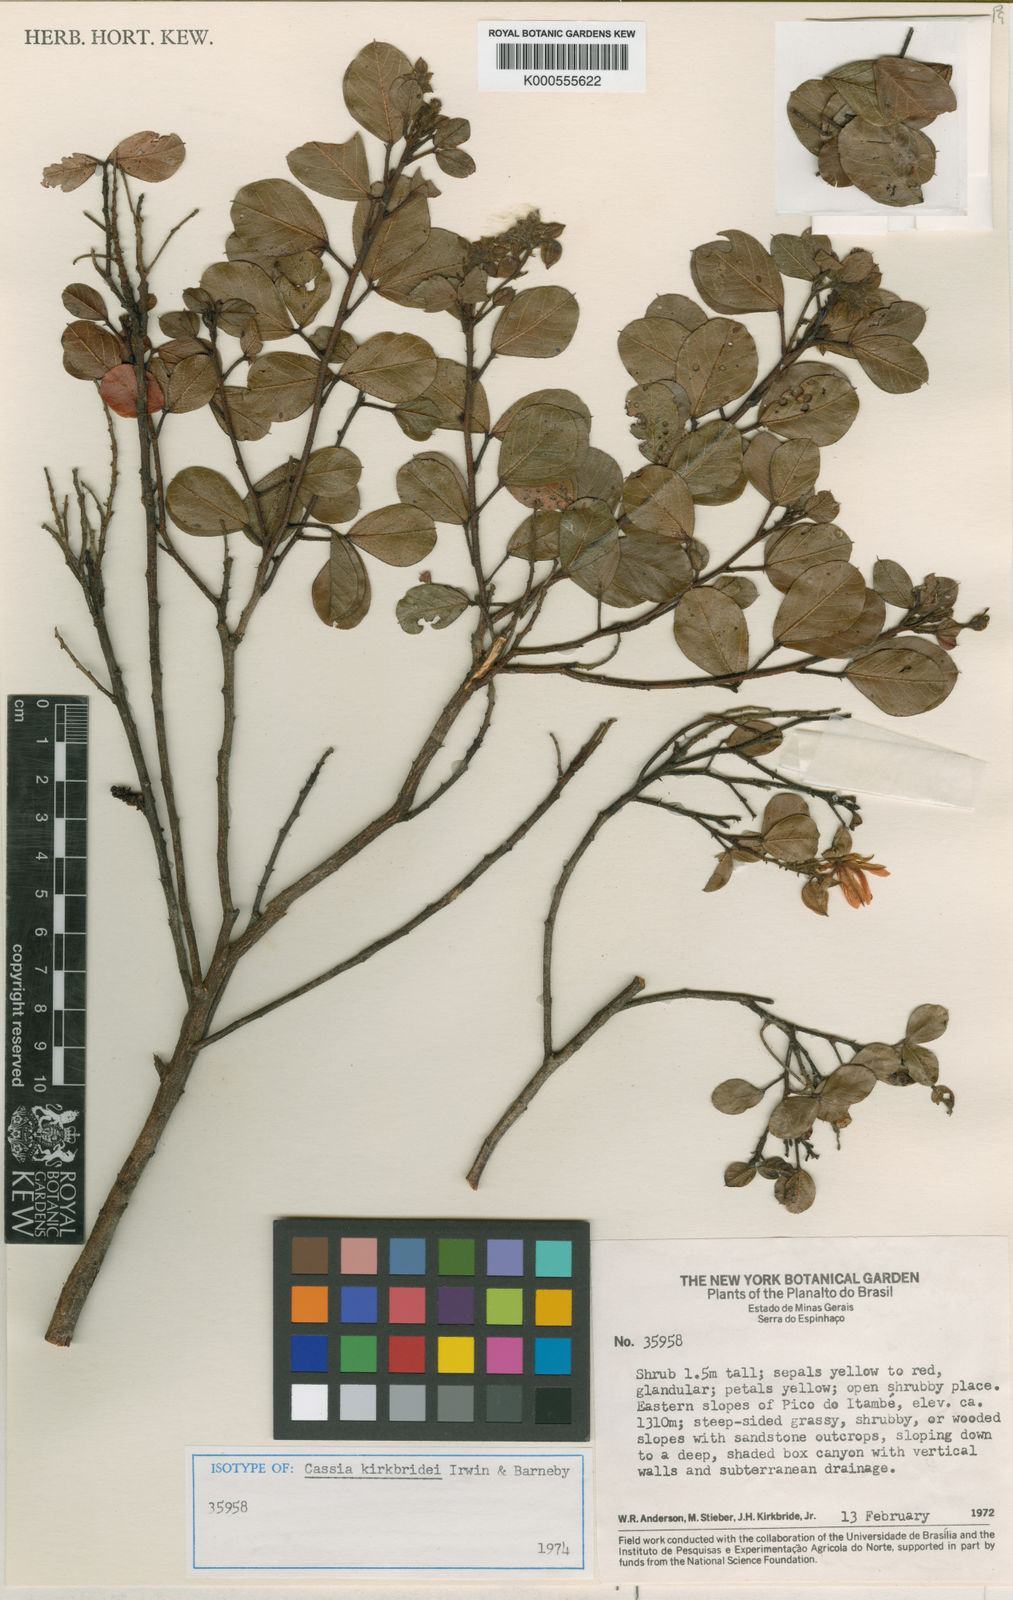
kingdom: Plantae
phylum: Tracheophyta
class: Magnoliopsida
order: Fabales
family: Fabaceae
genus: Chamaecrista
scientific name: Chamaecrista echinocarpa
